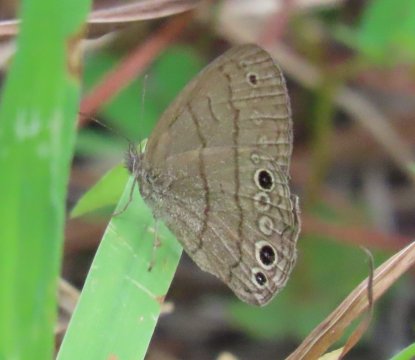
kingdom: Animalia
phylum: Arthropoda
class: Insecta
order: Lepidoptera
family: Nymphalidae
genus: Hermeuptychia
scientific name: Hermeuptychia intricata
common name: Intricate Satyr
